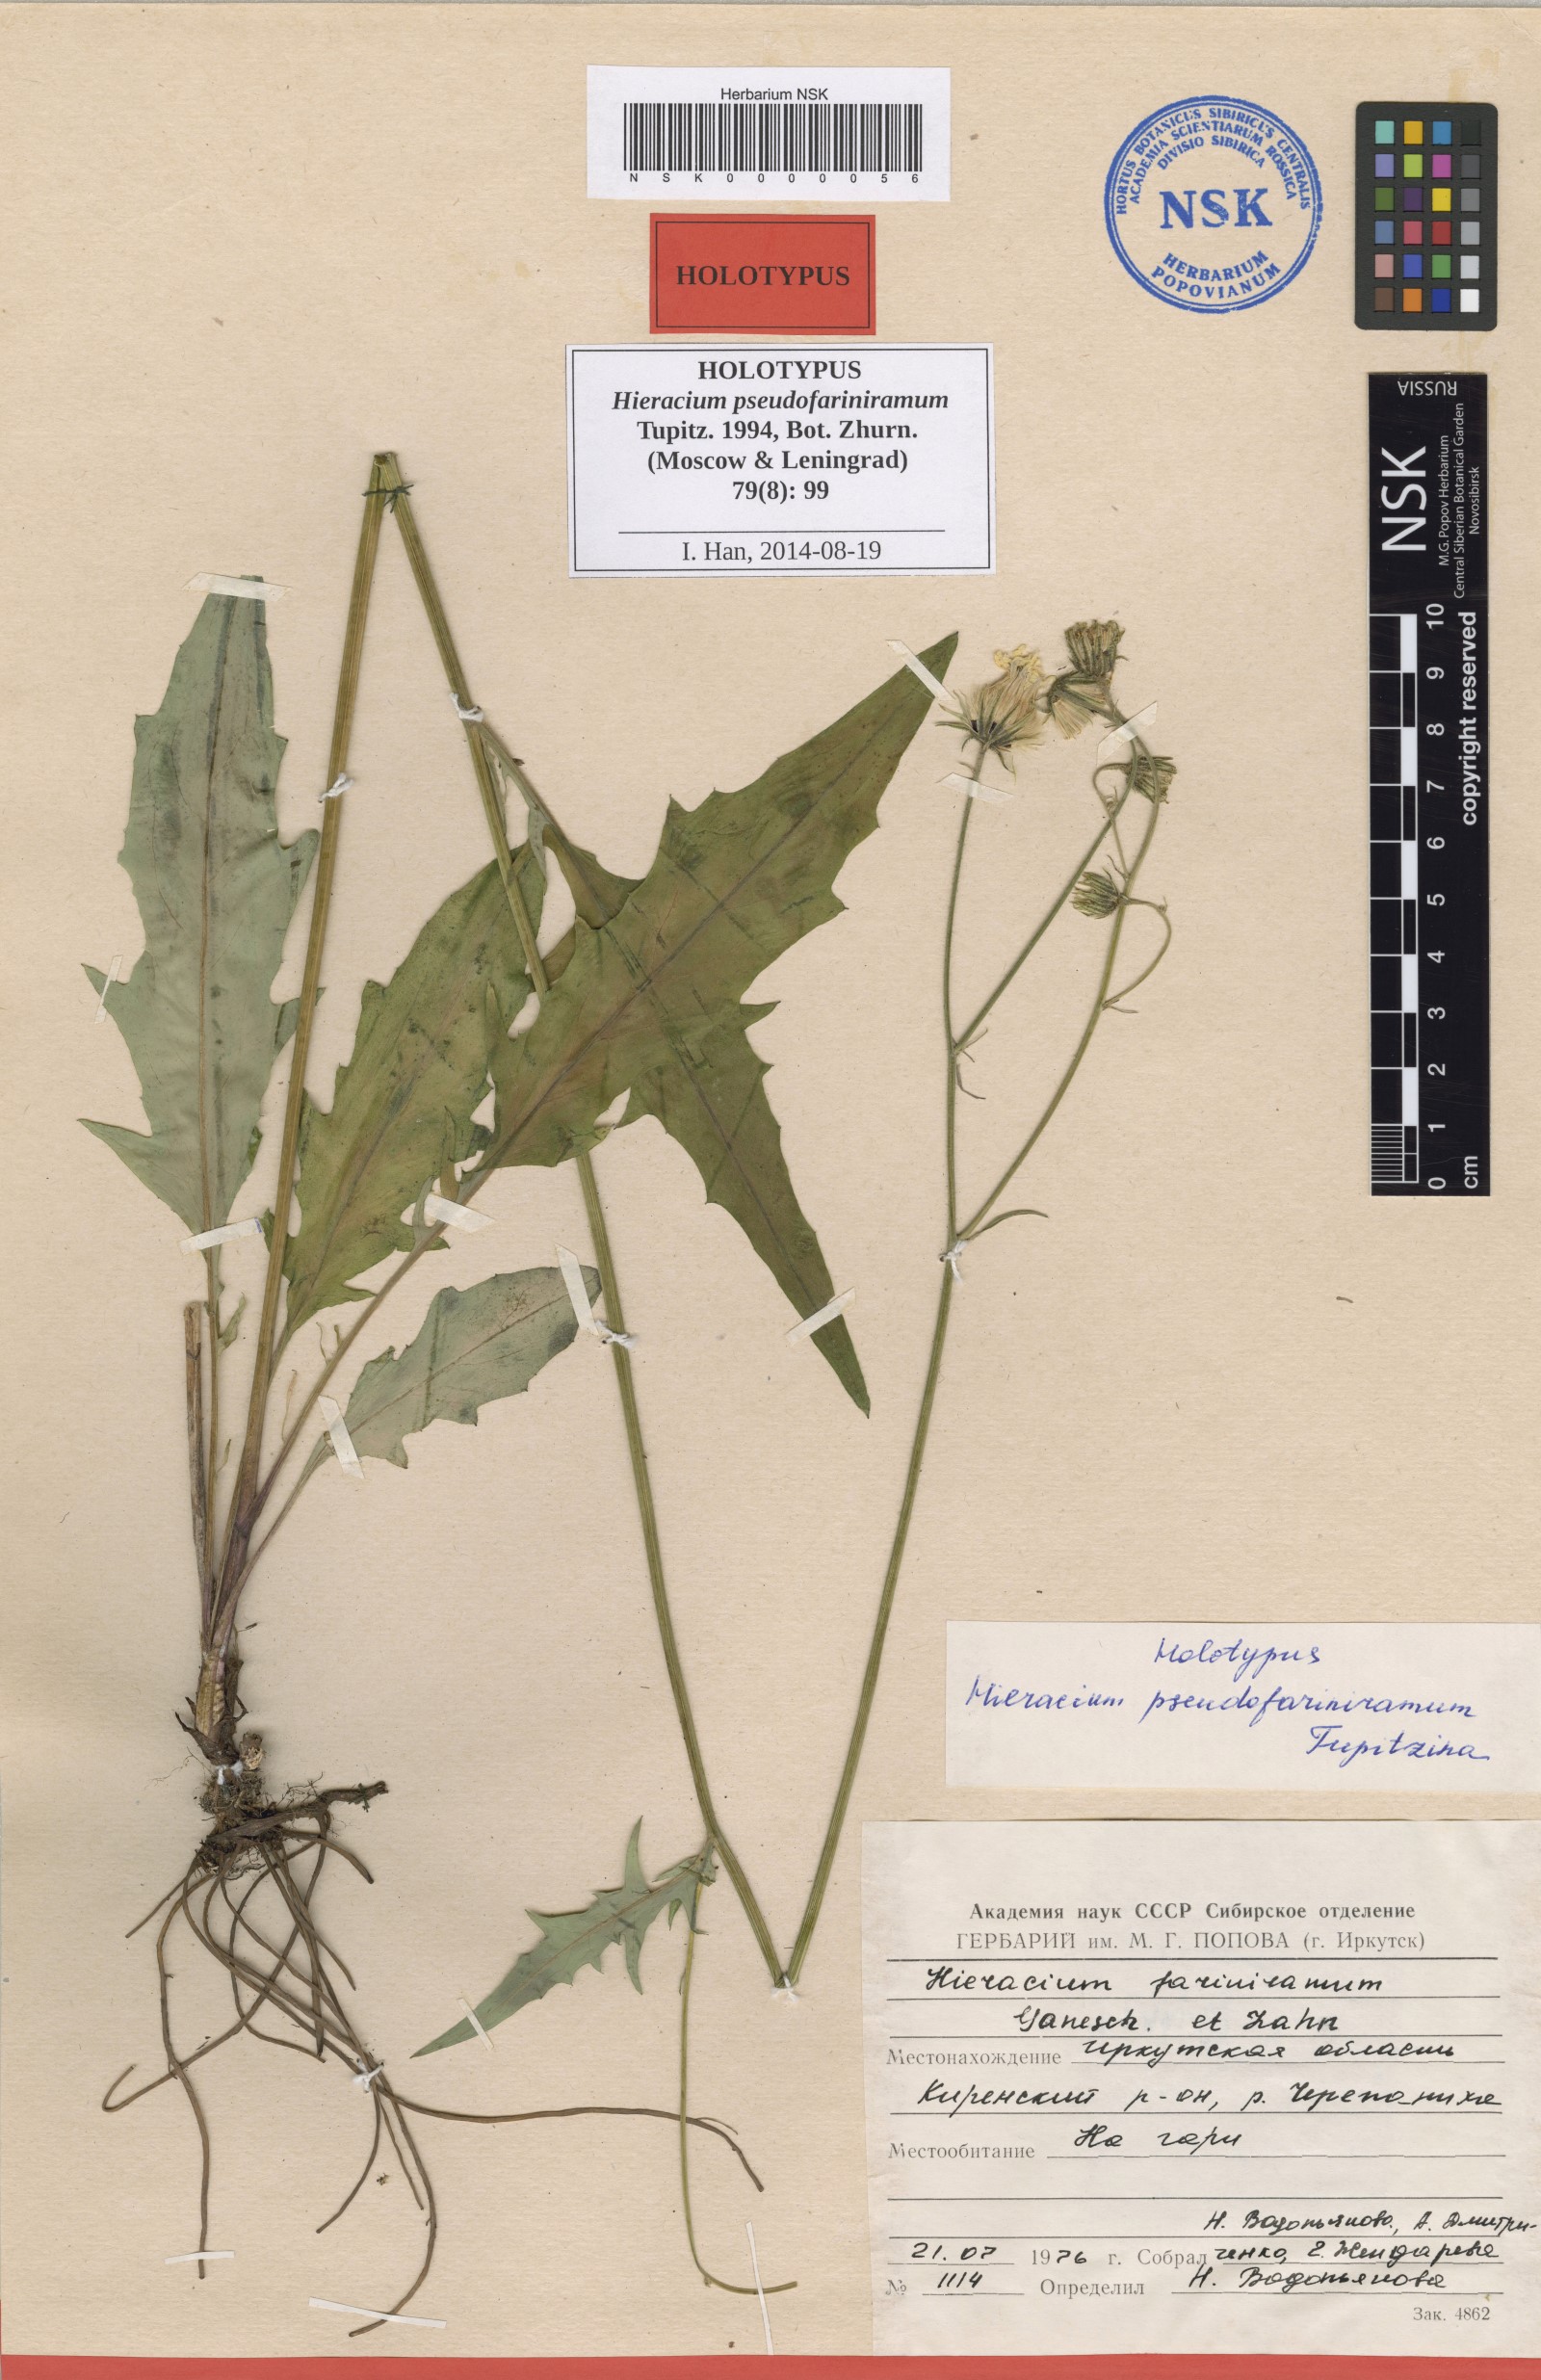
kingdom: Plantae
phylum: Tracheophyta
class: Magnoliopsida
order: Asterales
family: Asteraceae
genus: Hieracium
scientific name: Hieracium pseudofariniramum
